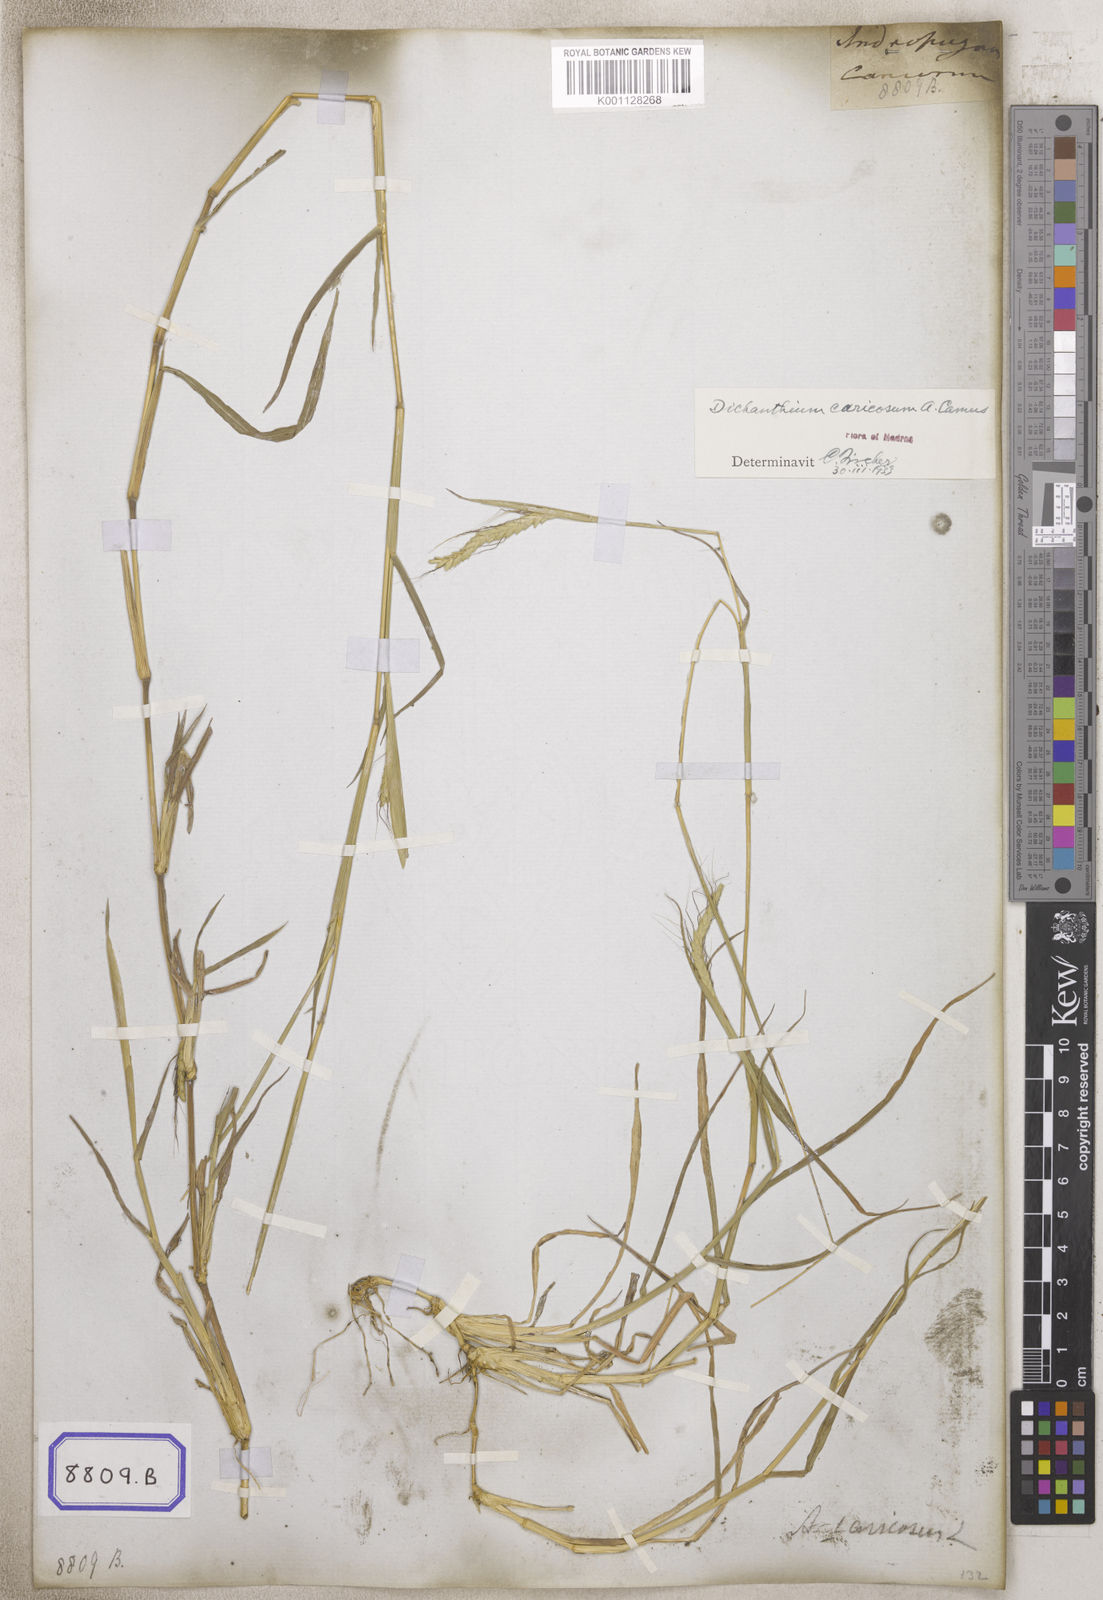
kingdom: Plantae
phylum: Tracheophyta
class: Liliopsida
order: Poales
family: Poaceae
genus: Andropogon
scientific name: Andropogon
